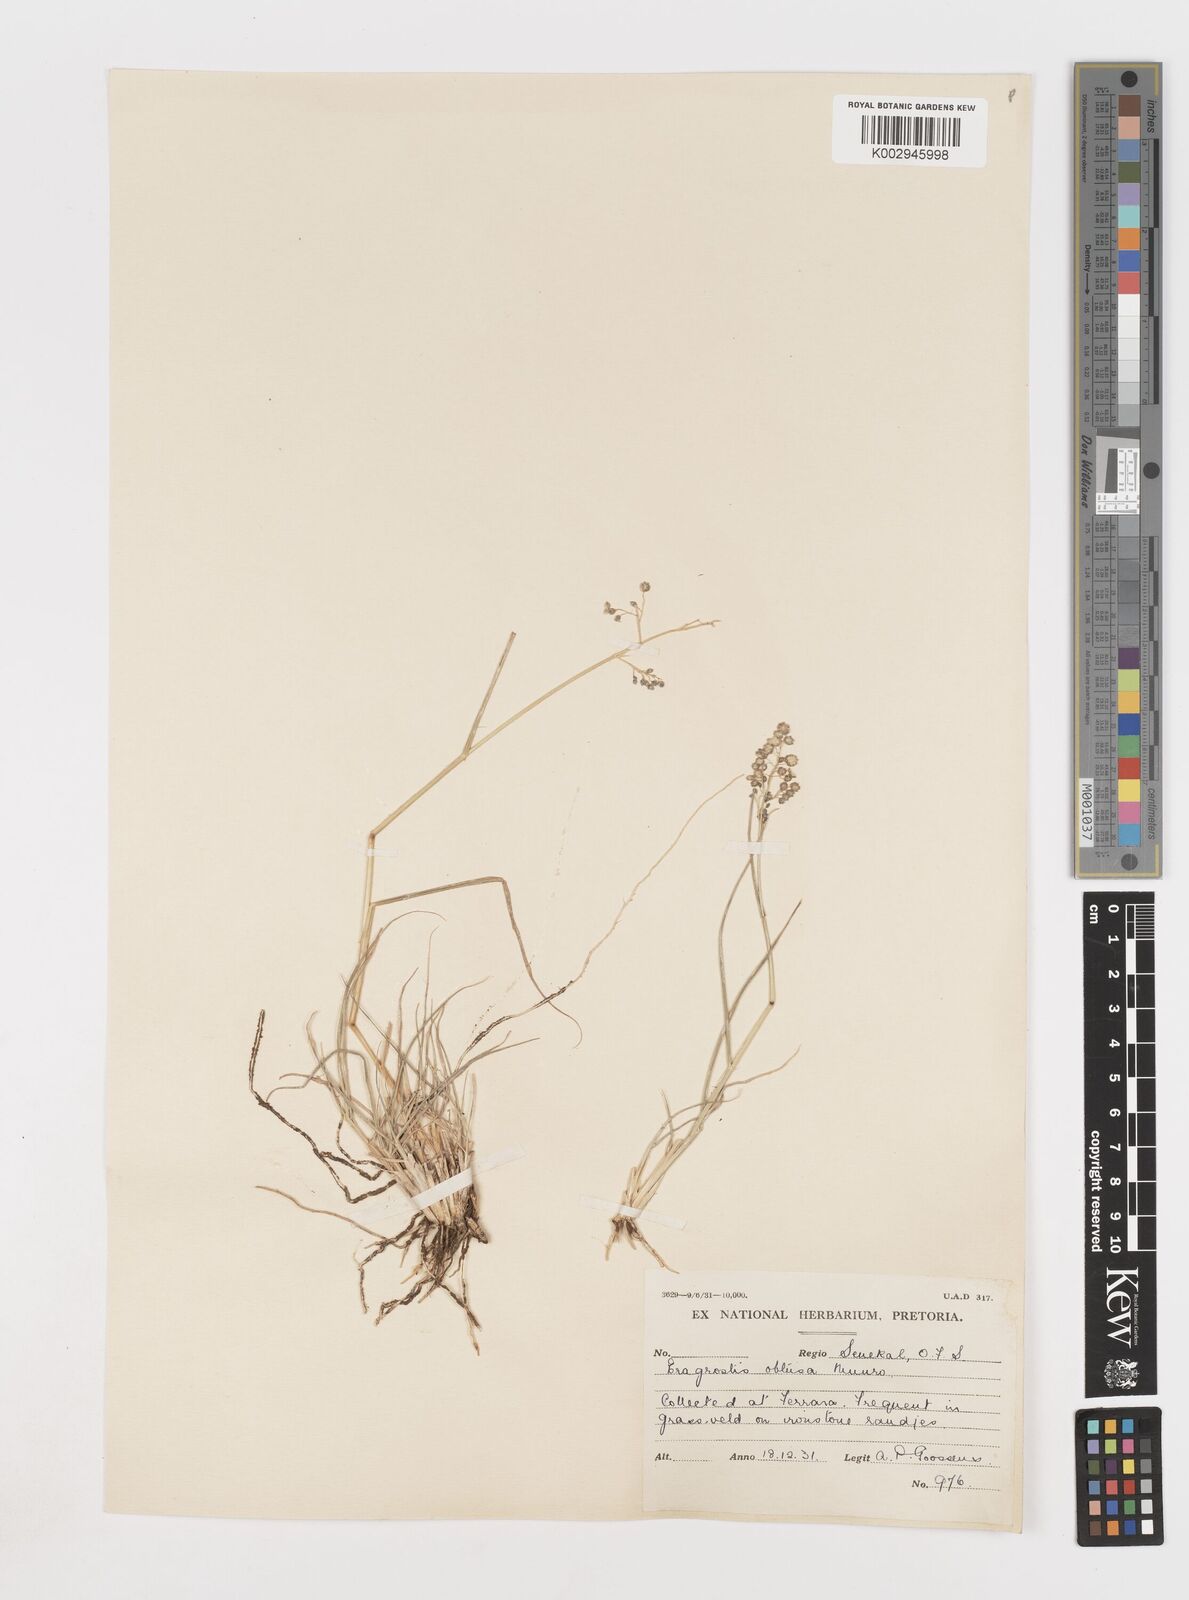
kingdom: Plantae
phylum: Tracheophyta
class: Liliopsida
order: Poales
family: Poaceae
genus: Eragrostis
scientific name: Eragrostis obtusa
